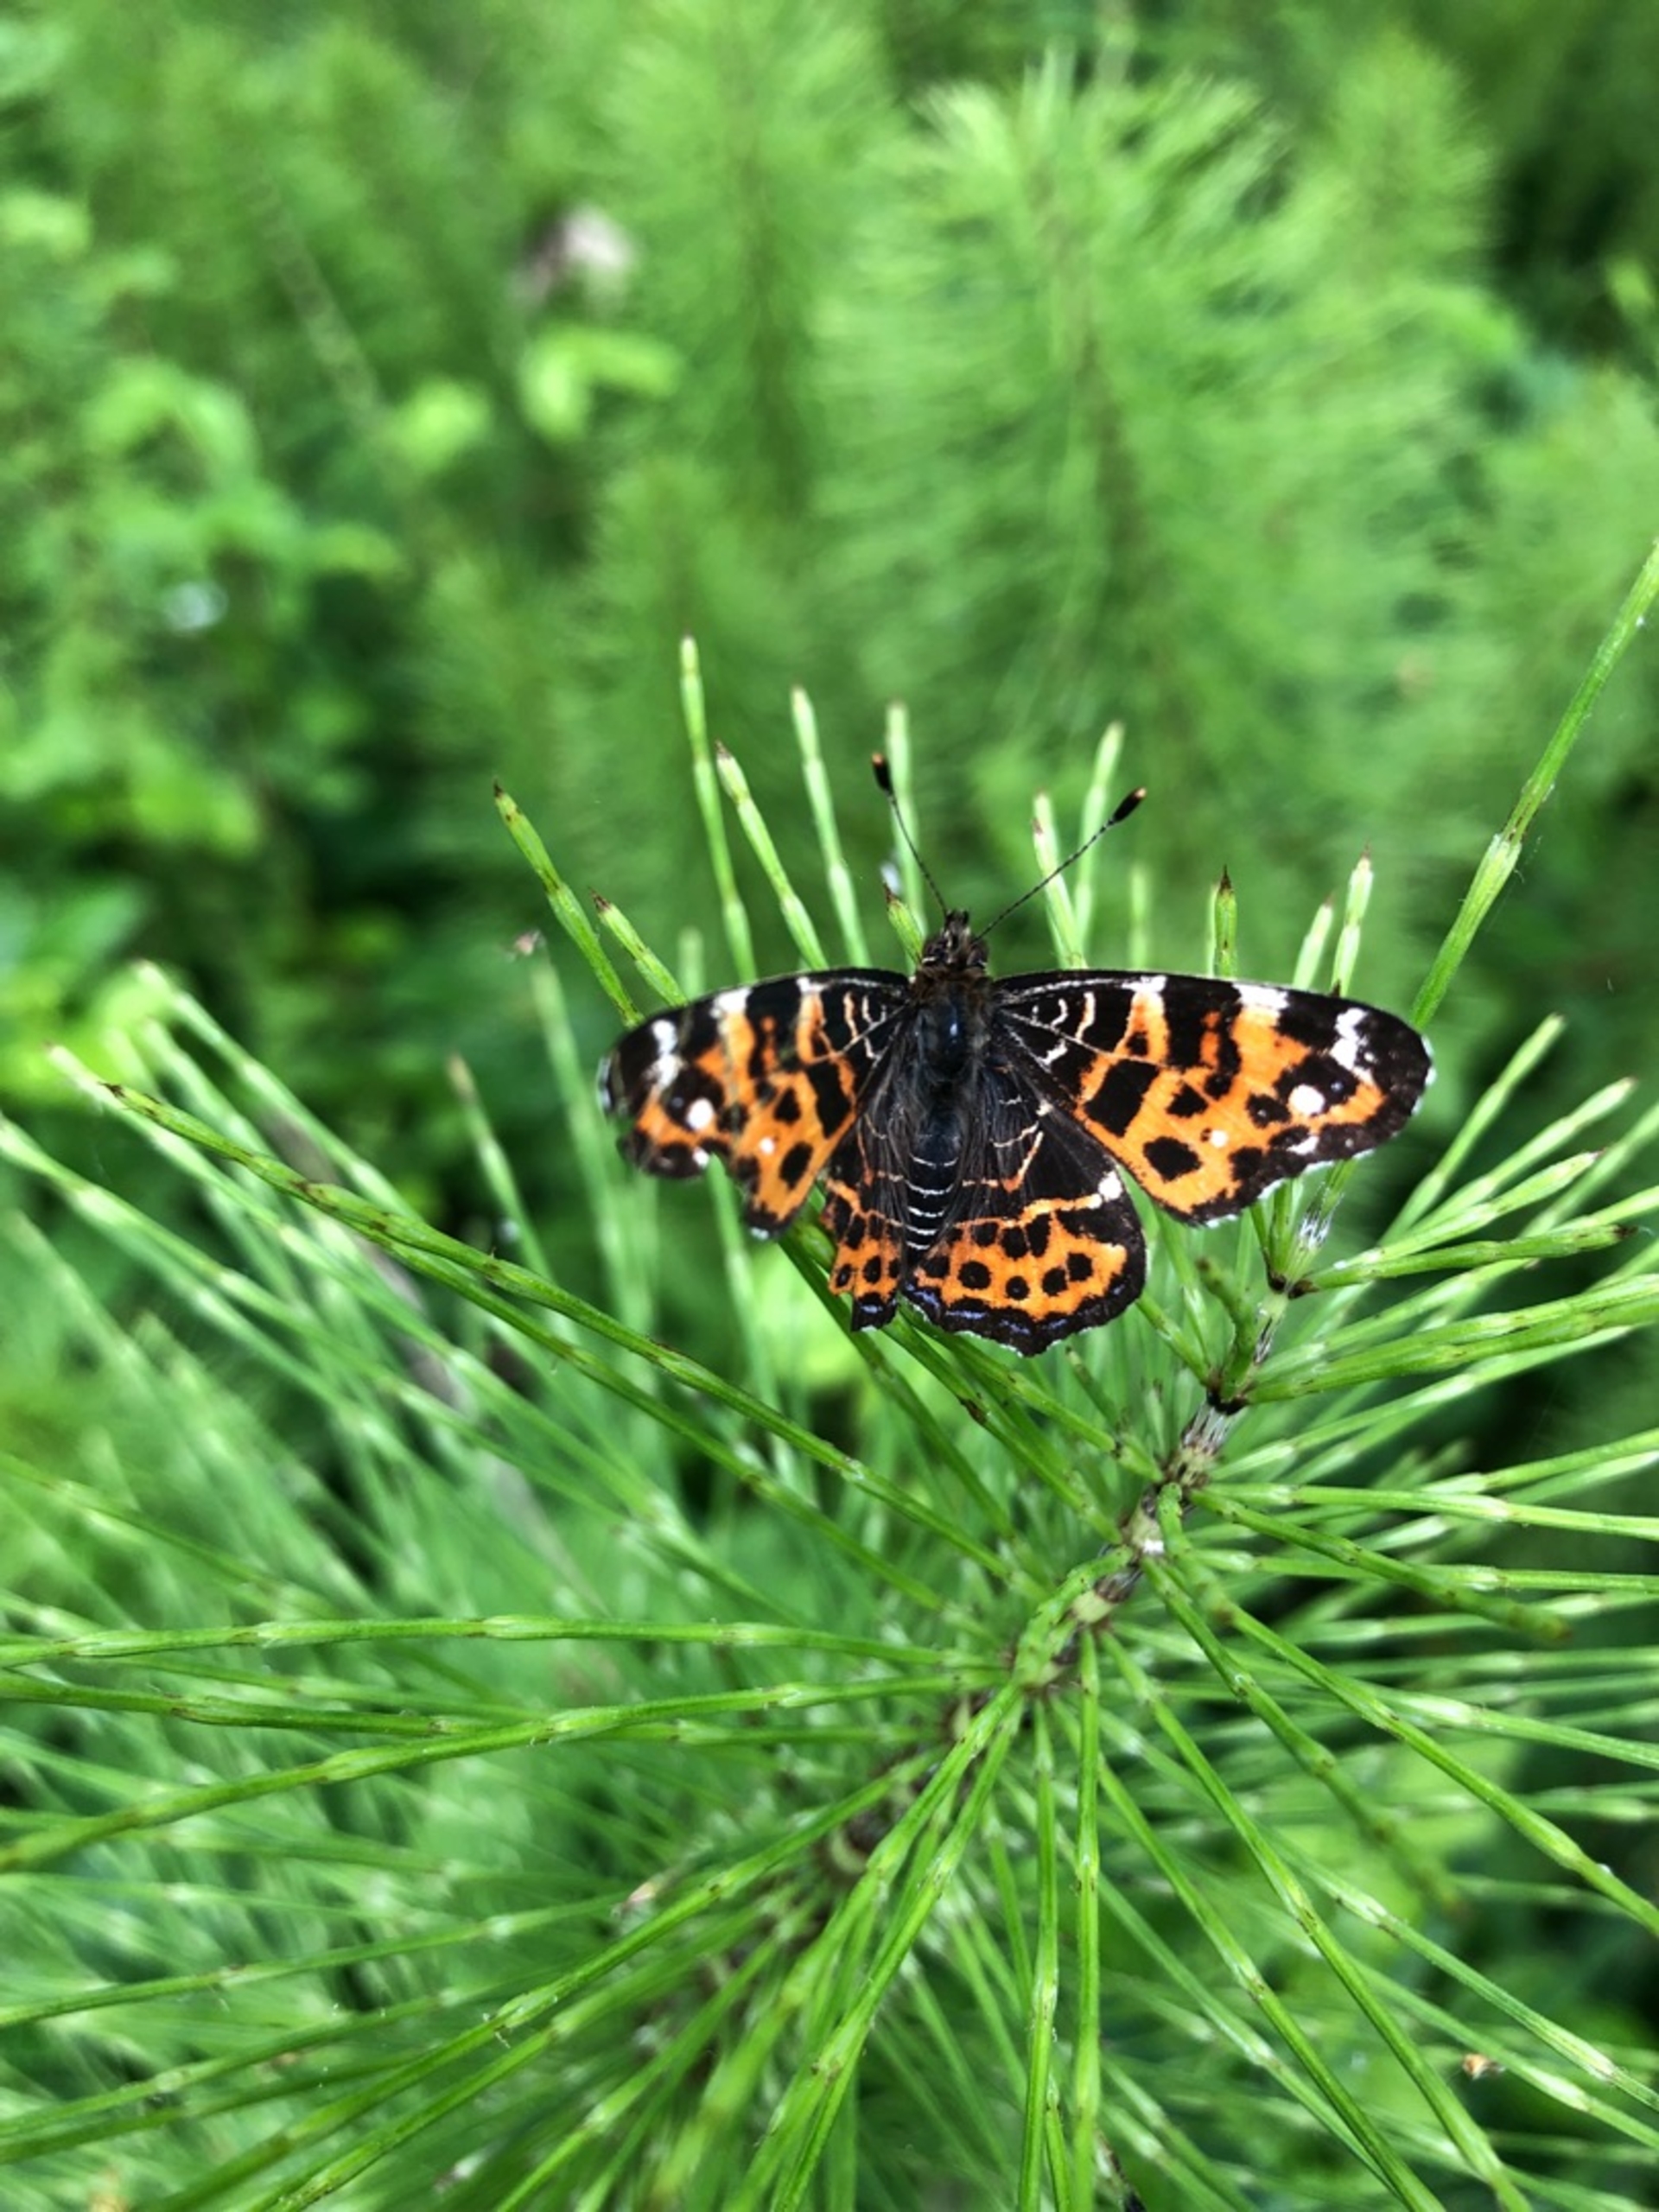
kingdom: Animalia
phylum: Arthropoda
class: Insecta
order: Lepidoptera
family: Nymphalidae
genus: Araschnia
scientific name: Araschnia levana
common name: Nældesommerfugl
